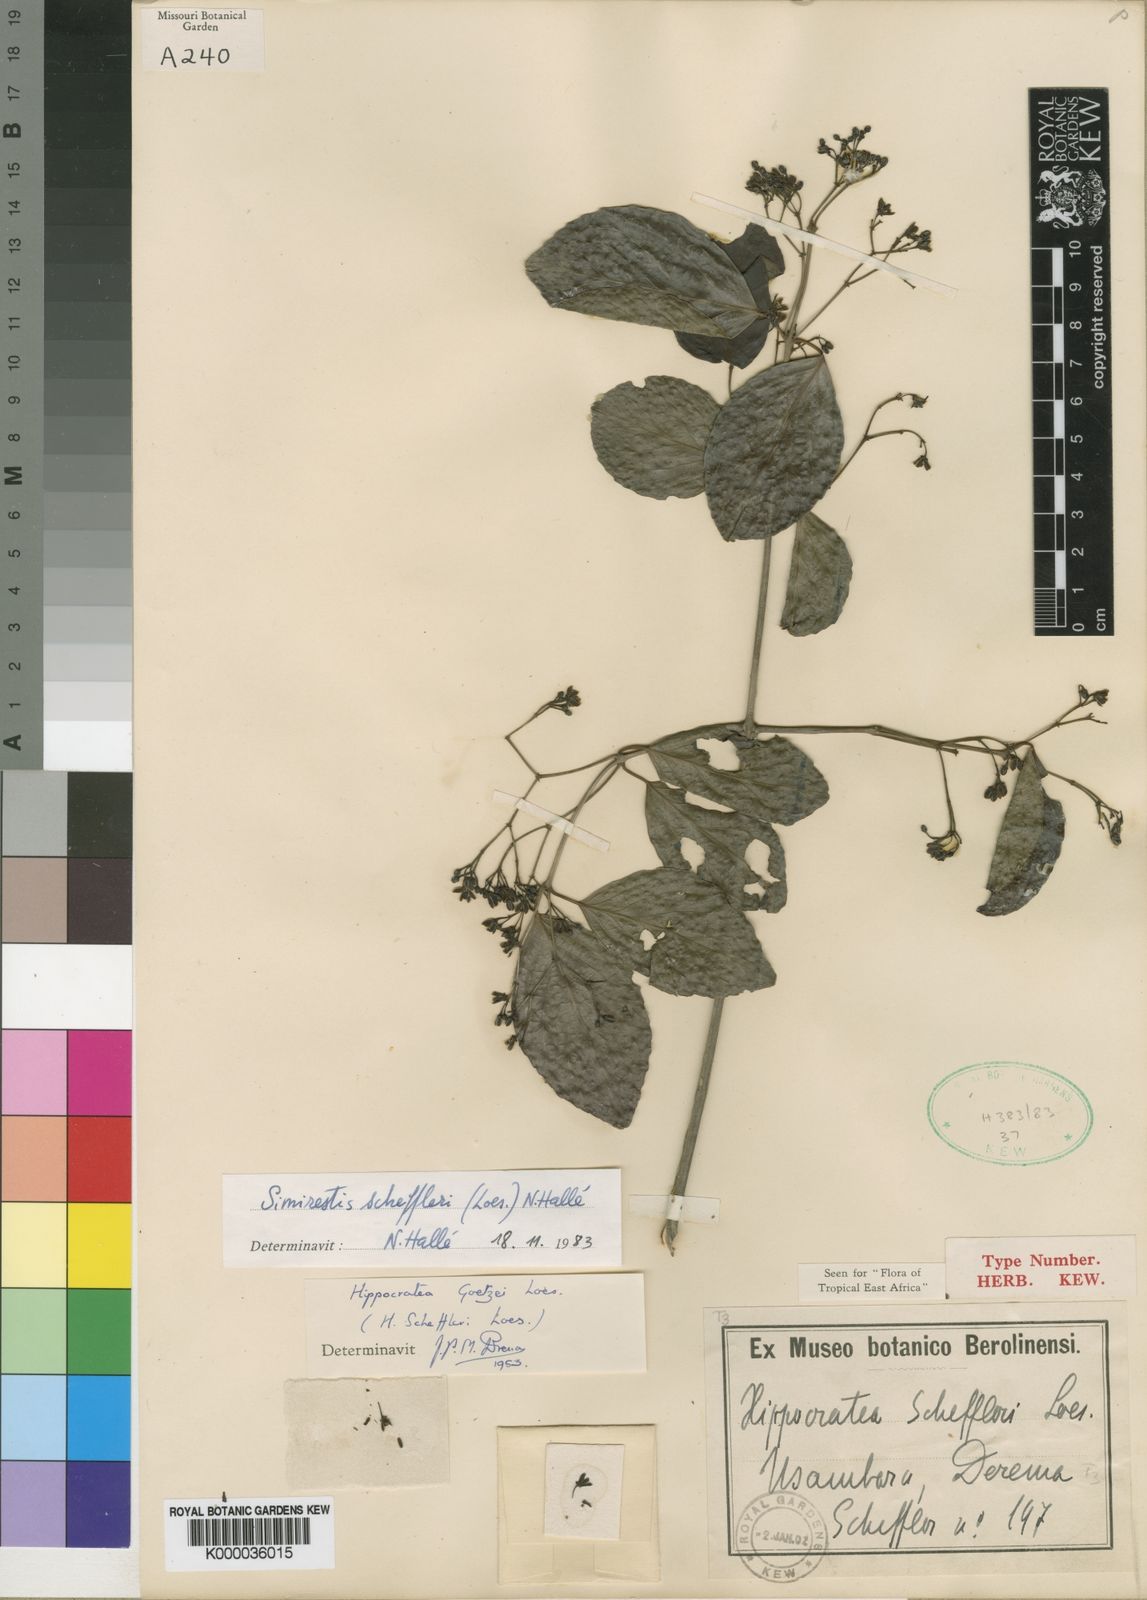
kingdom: Plantae
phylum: Tracheophyta
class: Magnoliopsida
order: Celastrales
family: Celastraceae
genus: Pristimera
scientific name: Pristimera
